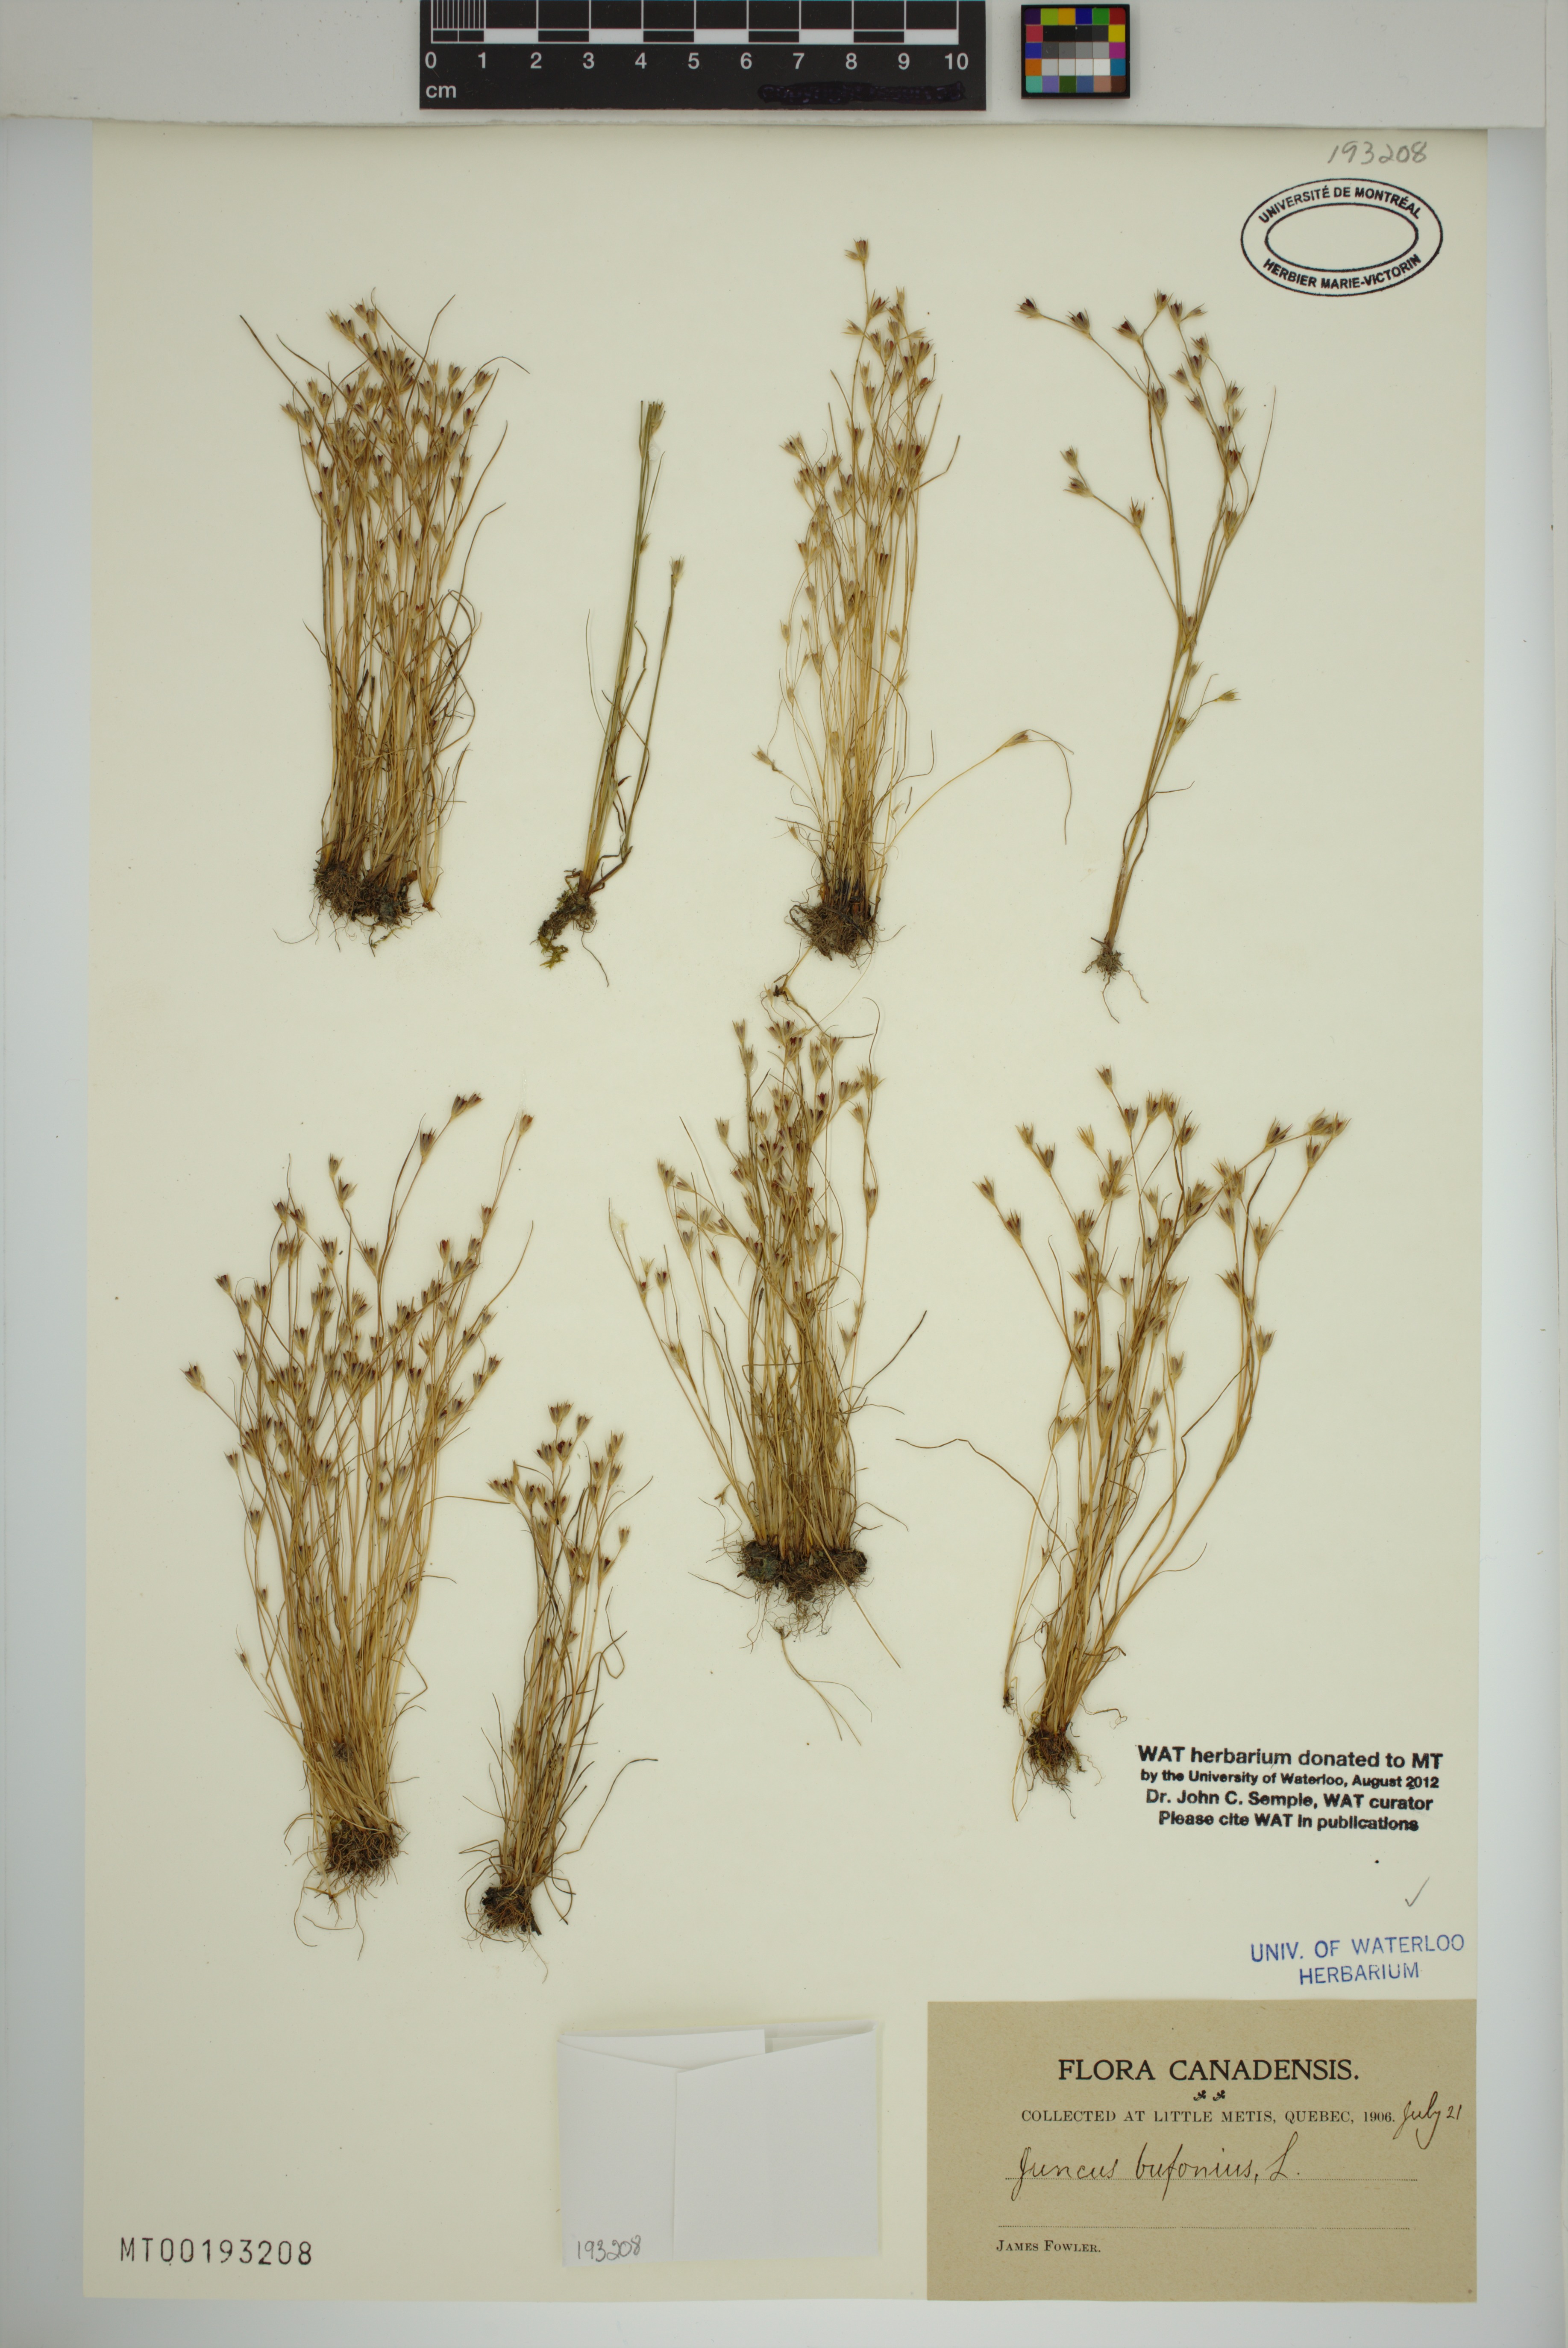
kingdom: Plantae
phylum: Tracheophyta
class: Liliopsida
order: Poales
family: Juncaceae
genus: Juncus
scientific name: Juncus bufonius
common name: Toad rush
